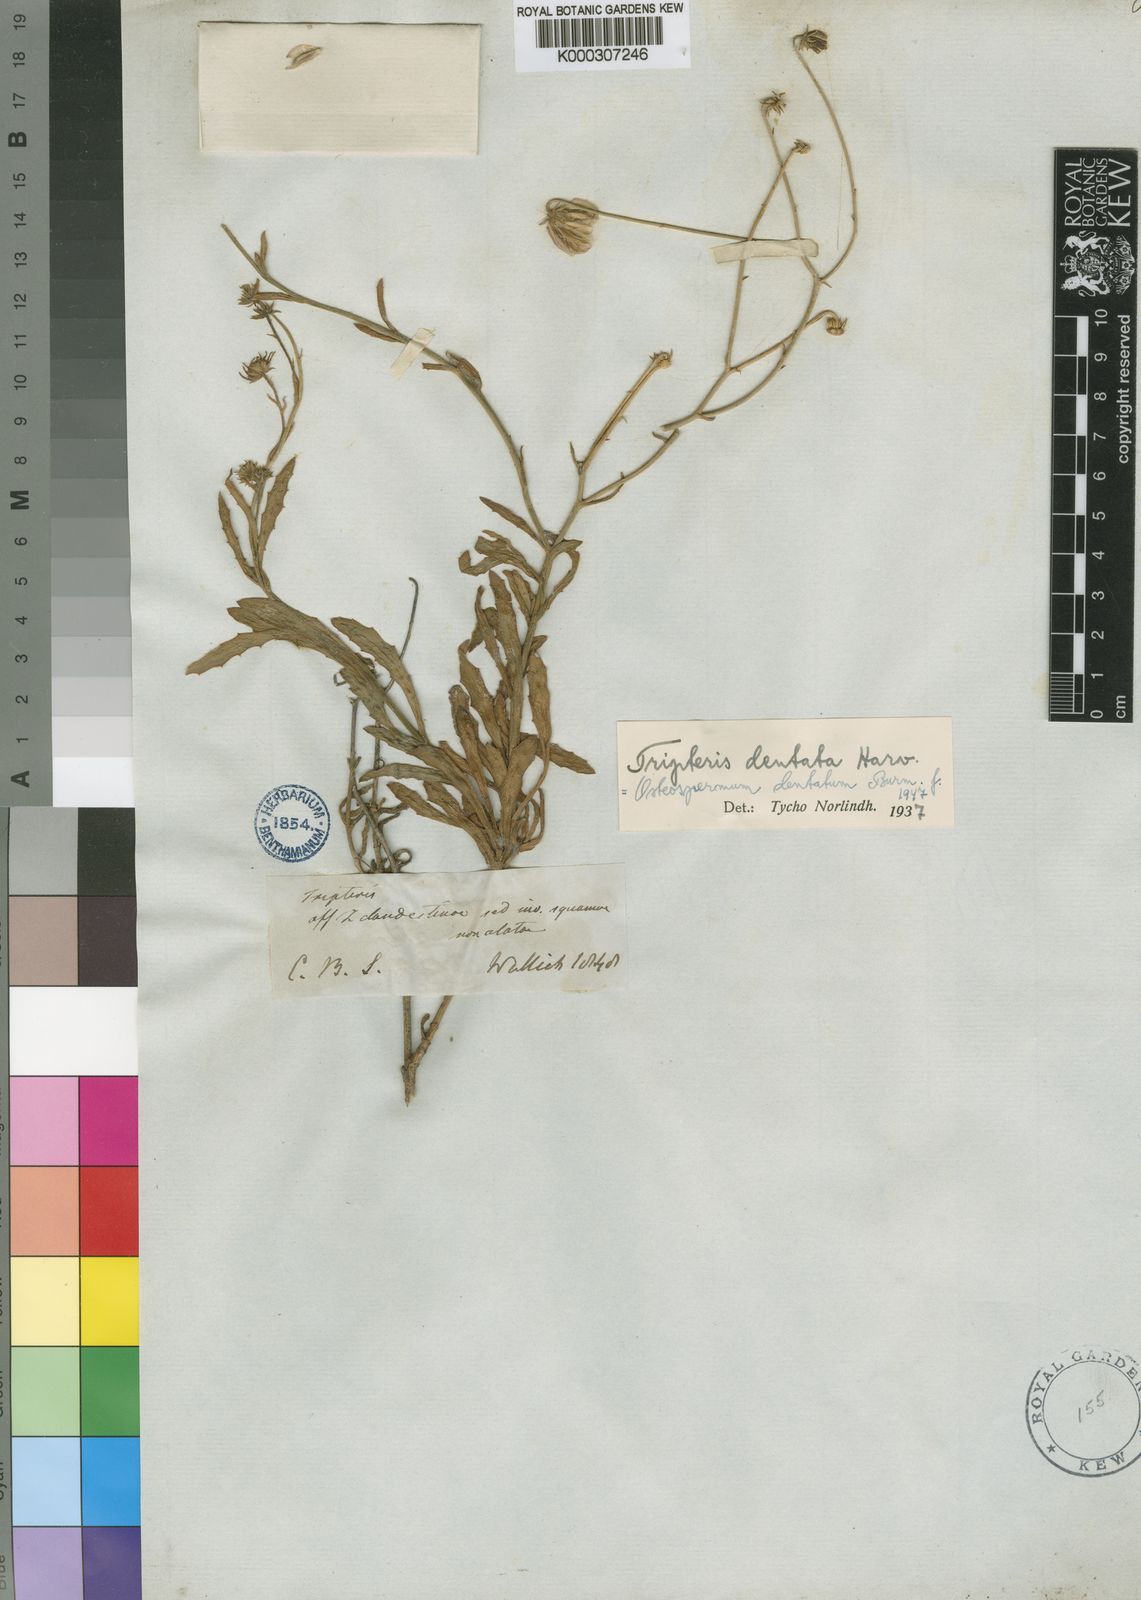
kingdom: Plantae
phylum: Tracheophyta
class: Magnoliopsida
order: Asterales
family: Asteraceae
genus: Osteospermum
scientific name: Osteospermum dentatum
